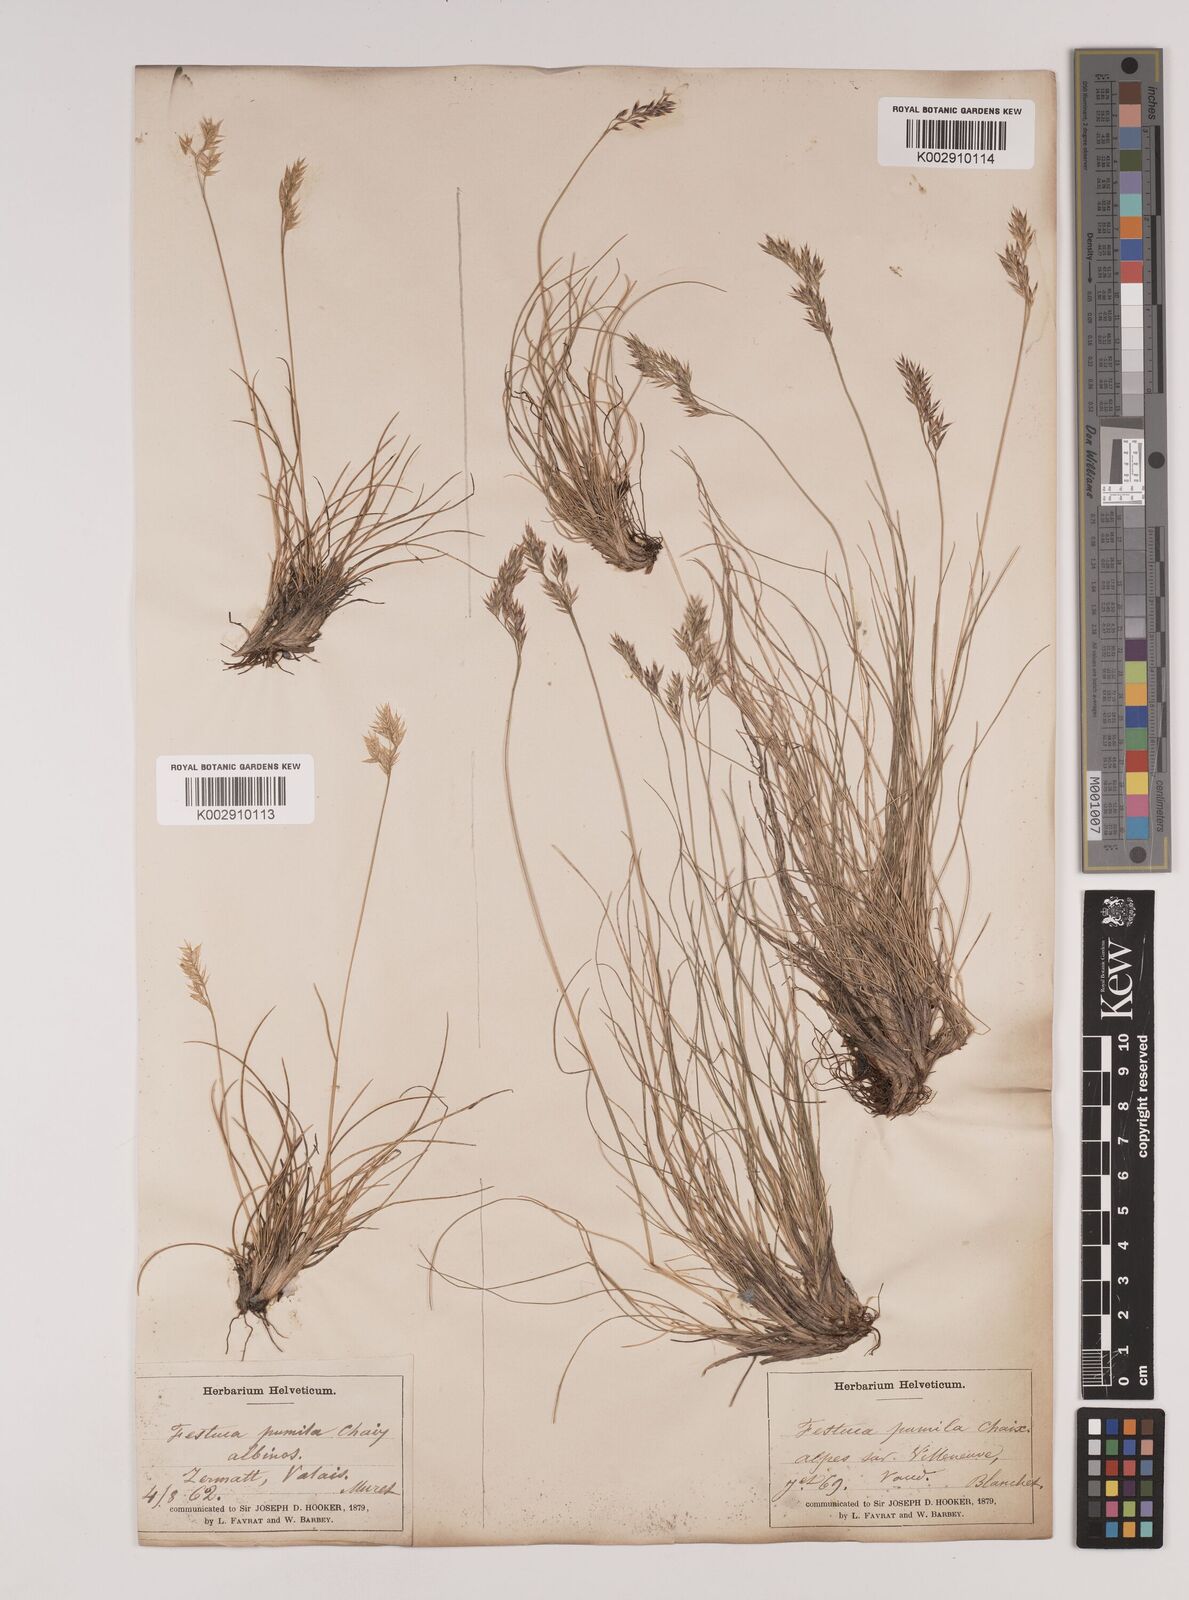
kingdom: Plantae
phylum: Tracheophyta
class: Liliopsida
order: Poales
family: Poaceae
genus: Festuca
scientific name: Festuca
